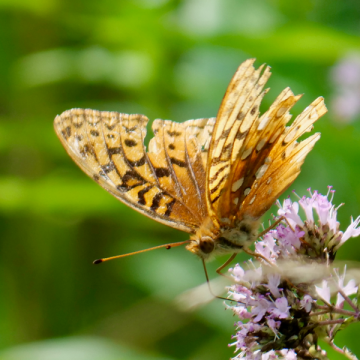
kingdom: Animalia
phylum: Arthropoda
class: Insecta
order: Lepidoptera
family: Nymphalidae
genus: Speyeria
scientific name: Speyeria cybele
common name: Great Spangled Fritillary
